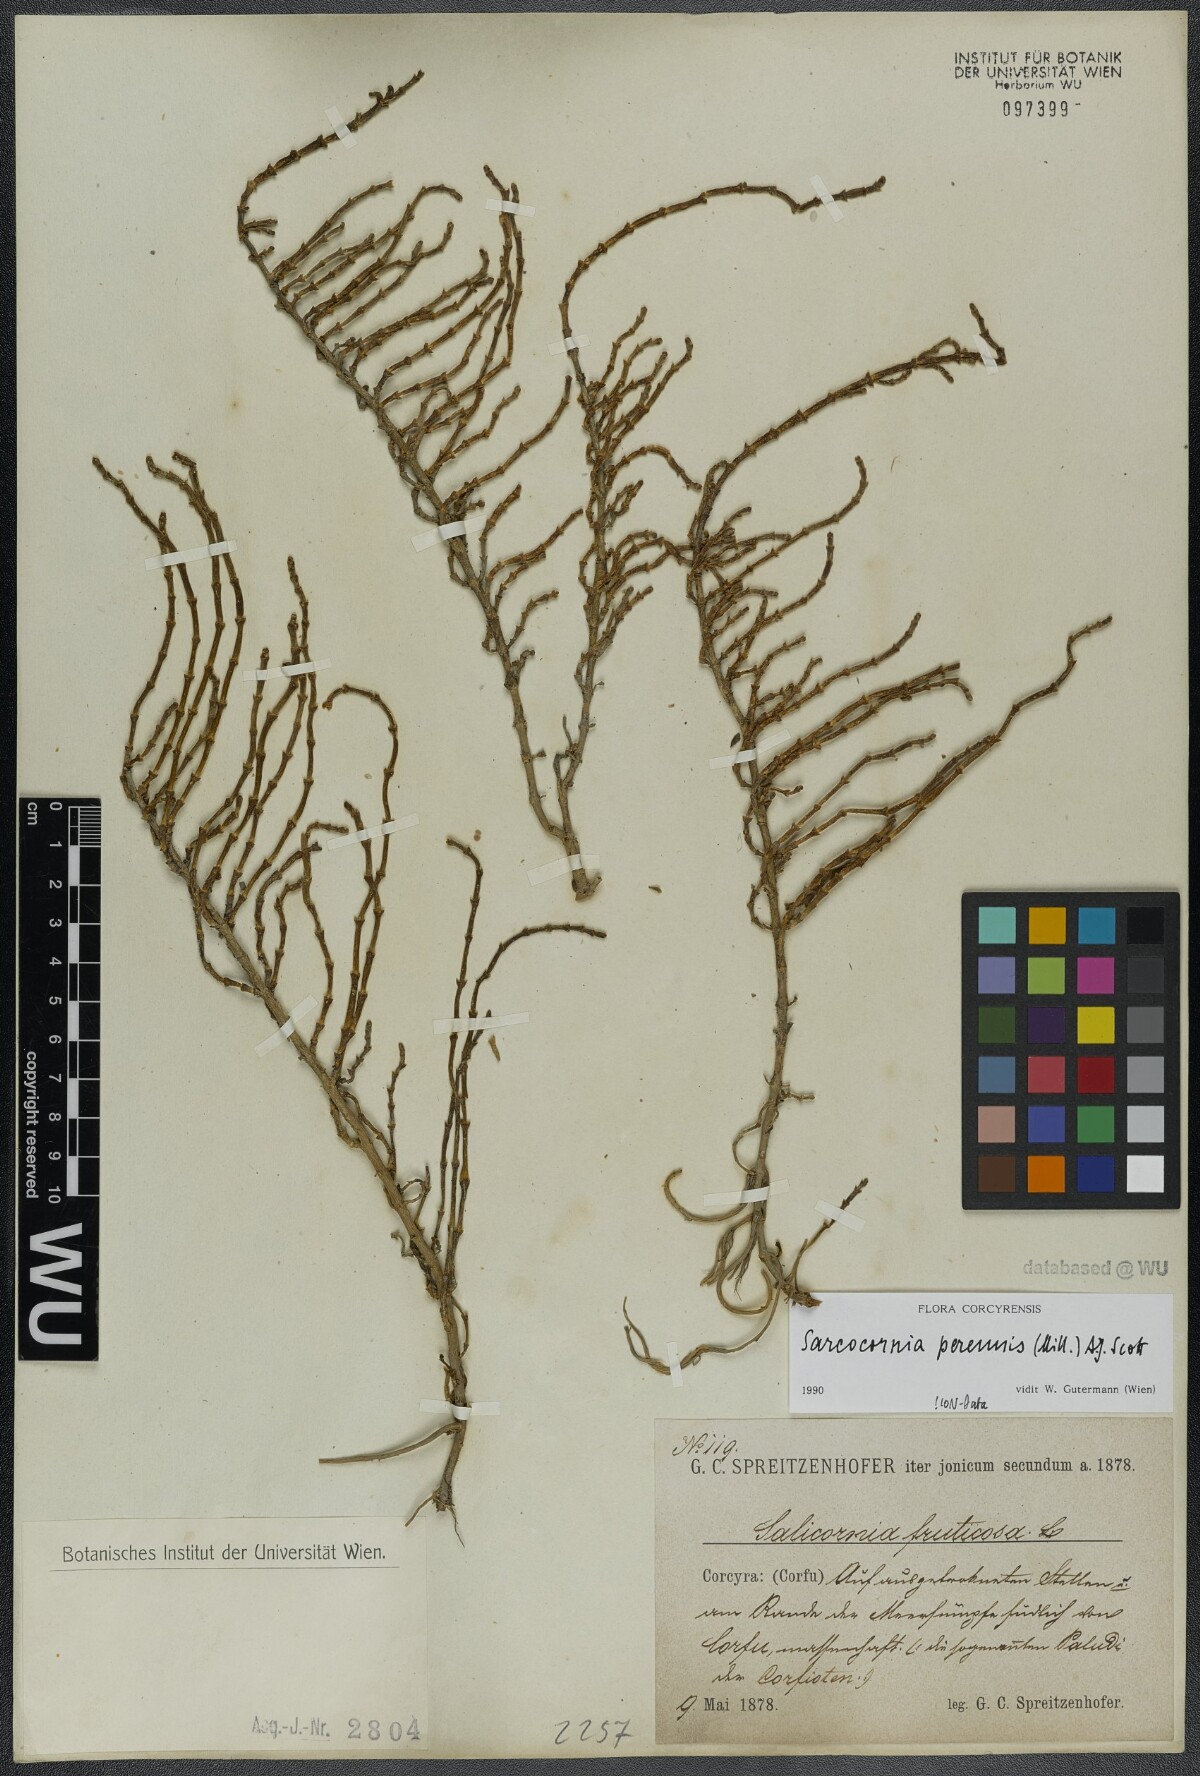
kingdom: Plantae
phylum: Tracheophyta
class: Magnoliopsida
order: Caryophyllales
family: Amaranthaceae
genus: Salicornia
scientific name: Salicornia perennis
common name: Chicken claws
